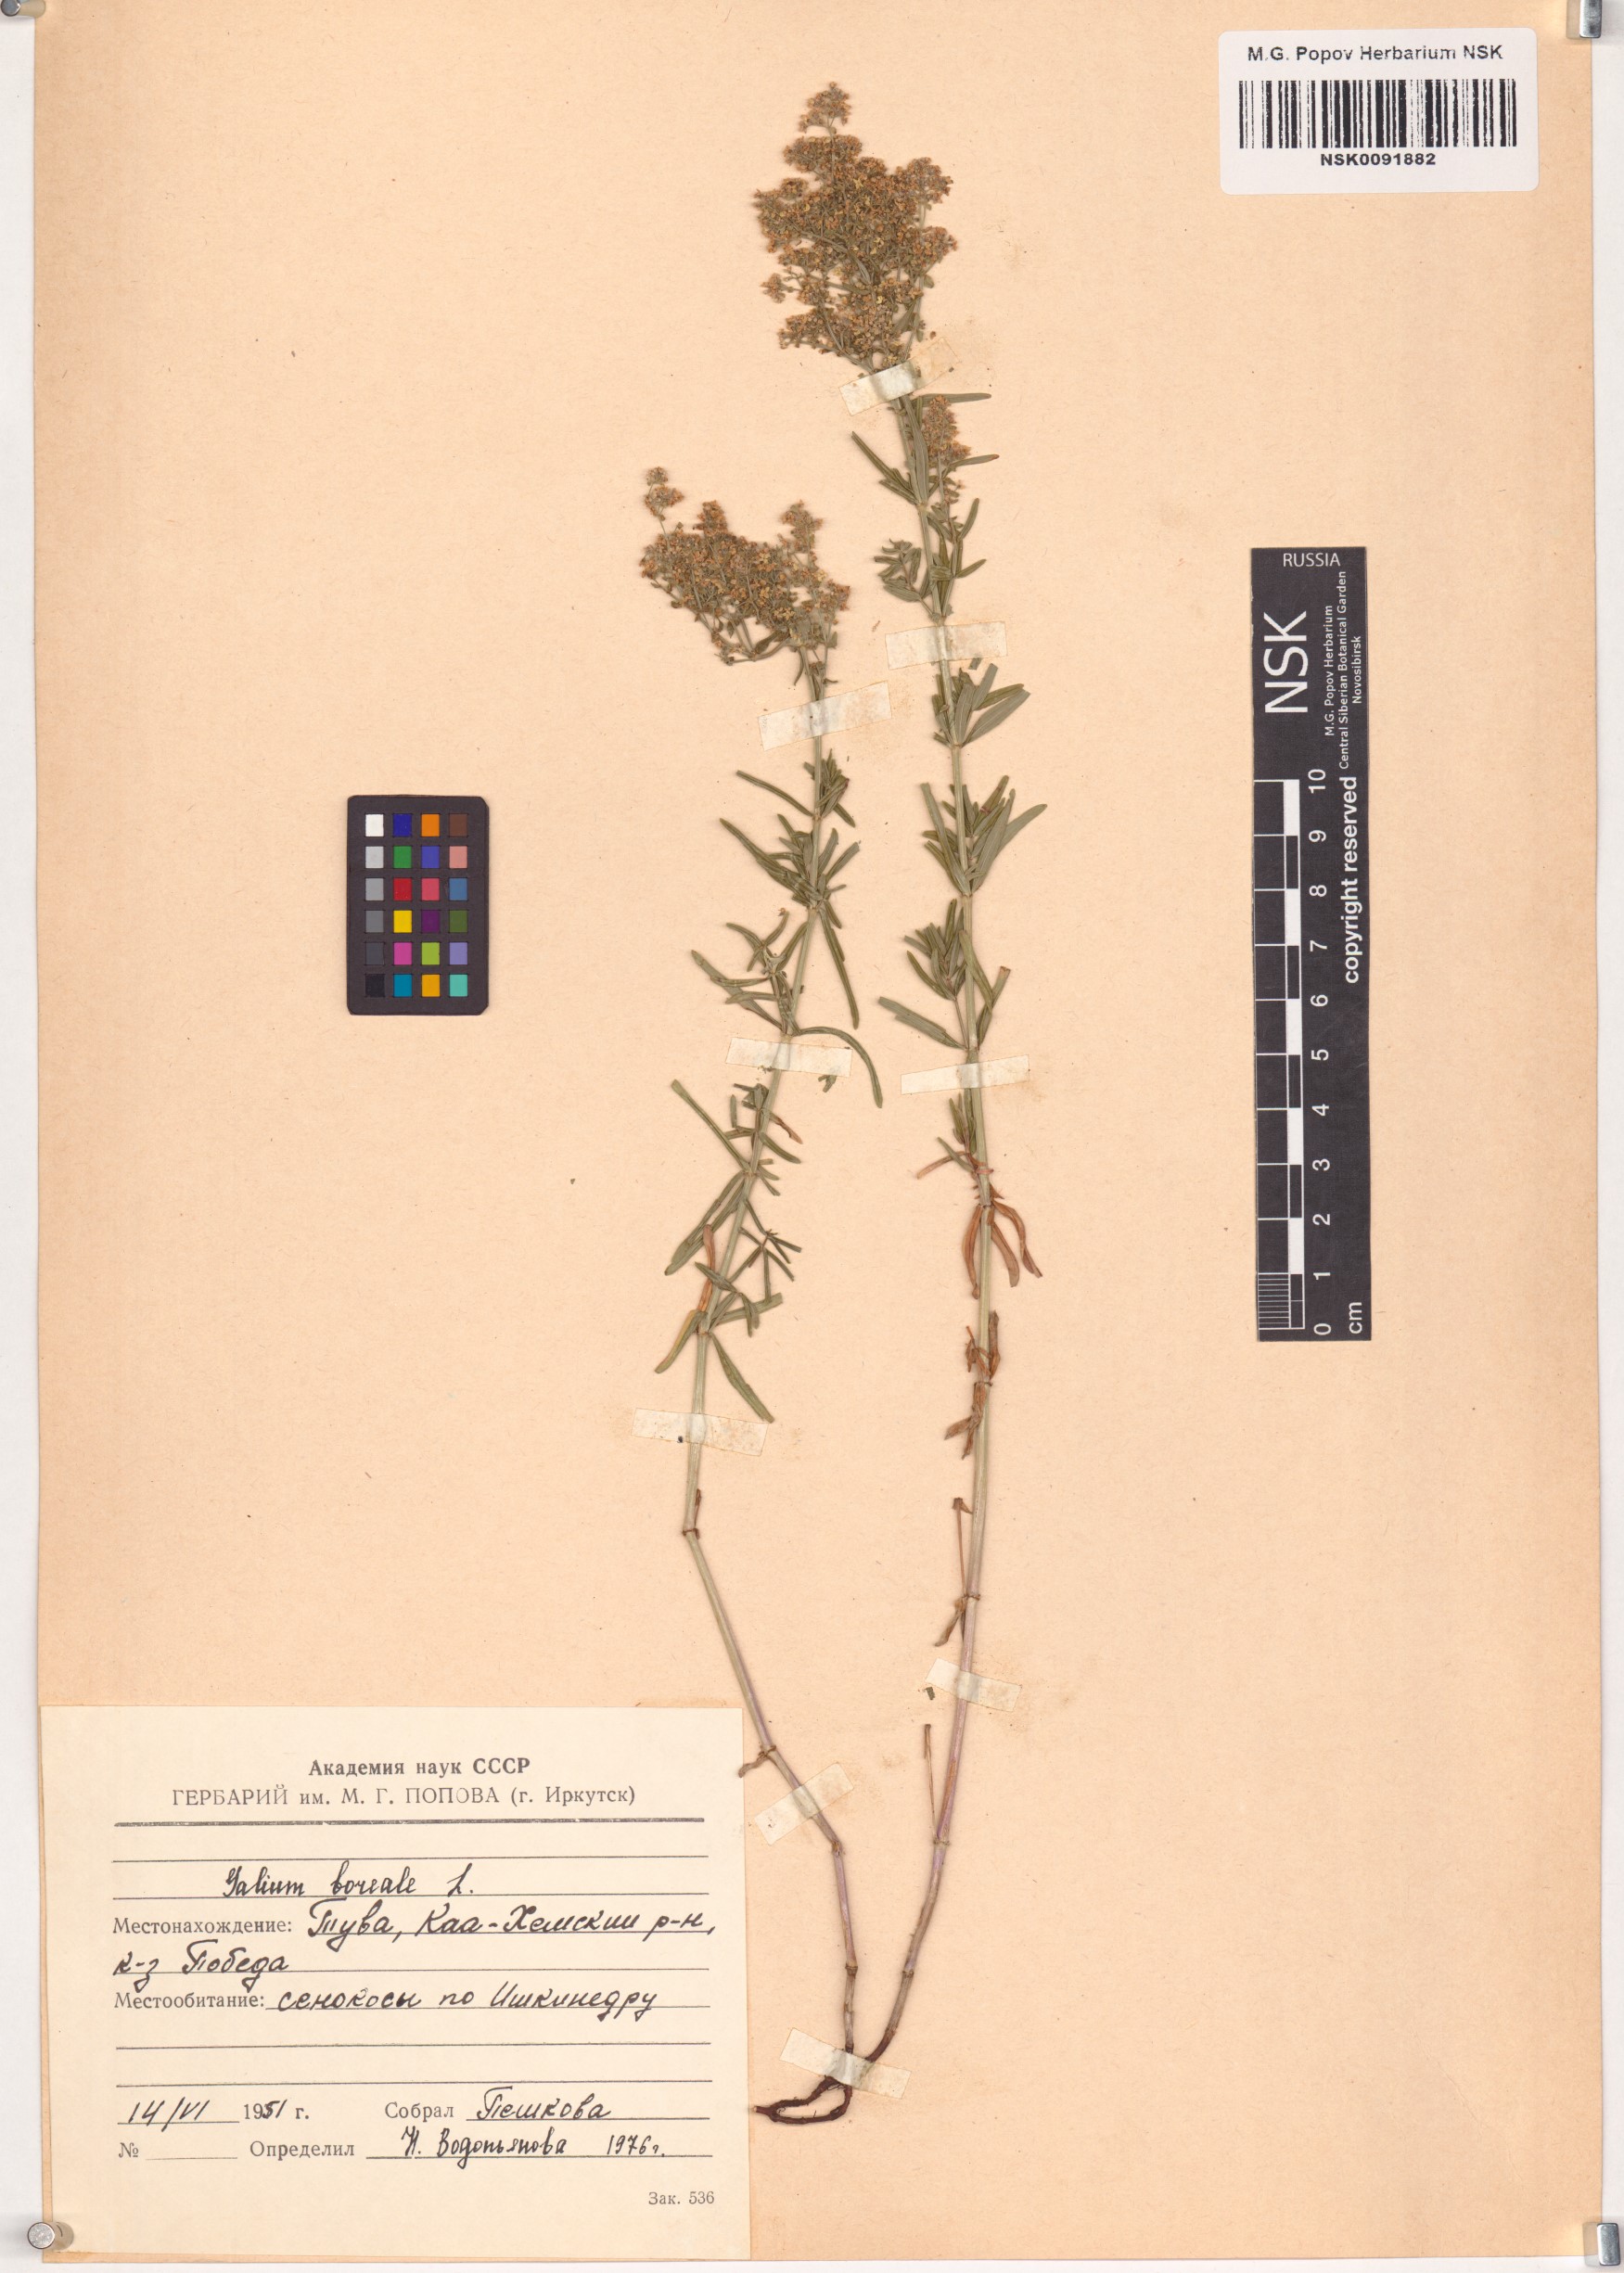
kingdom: Plantae
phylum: Tracheophyta
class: Magnoliopsida
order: Gentianales
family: Rubiaceae
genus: Galium
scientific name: Galium boreale
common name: Northern bedstraw
